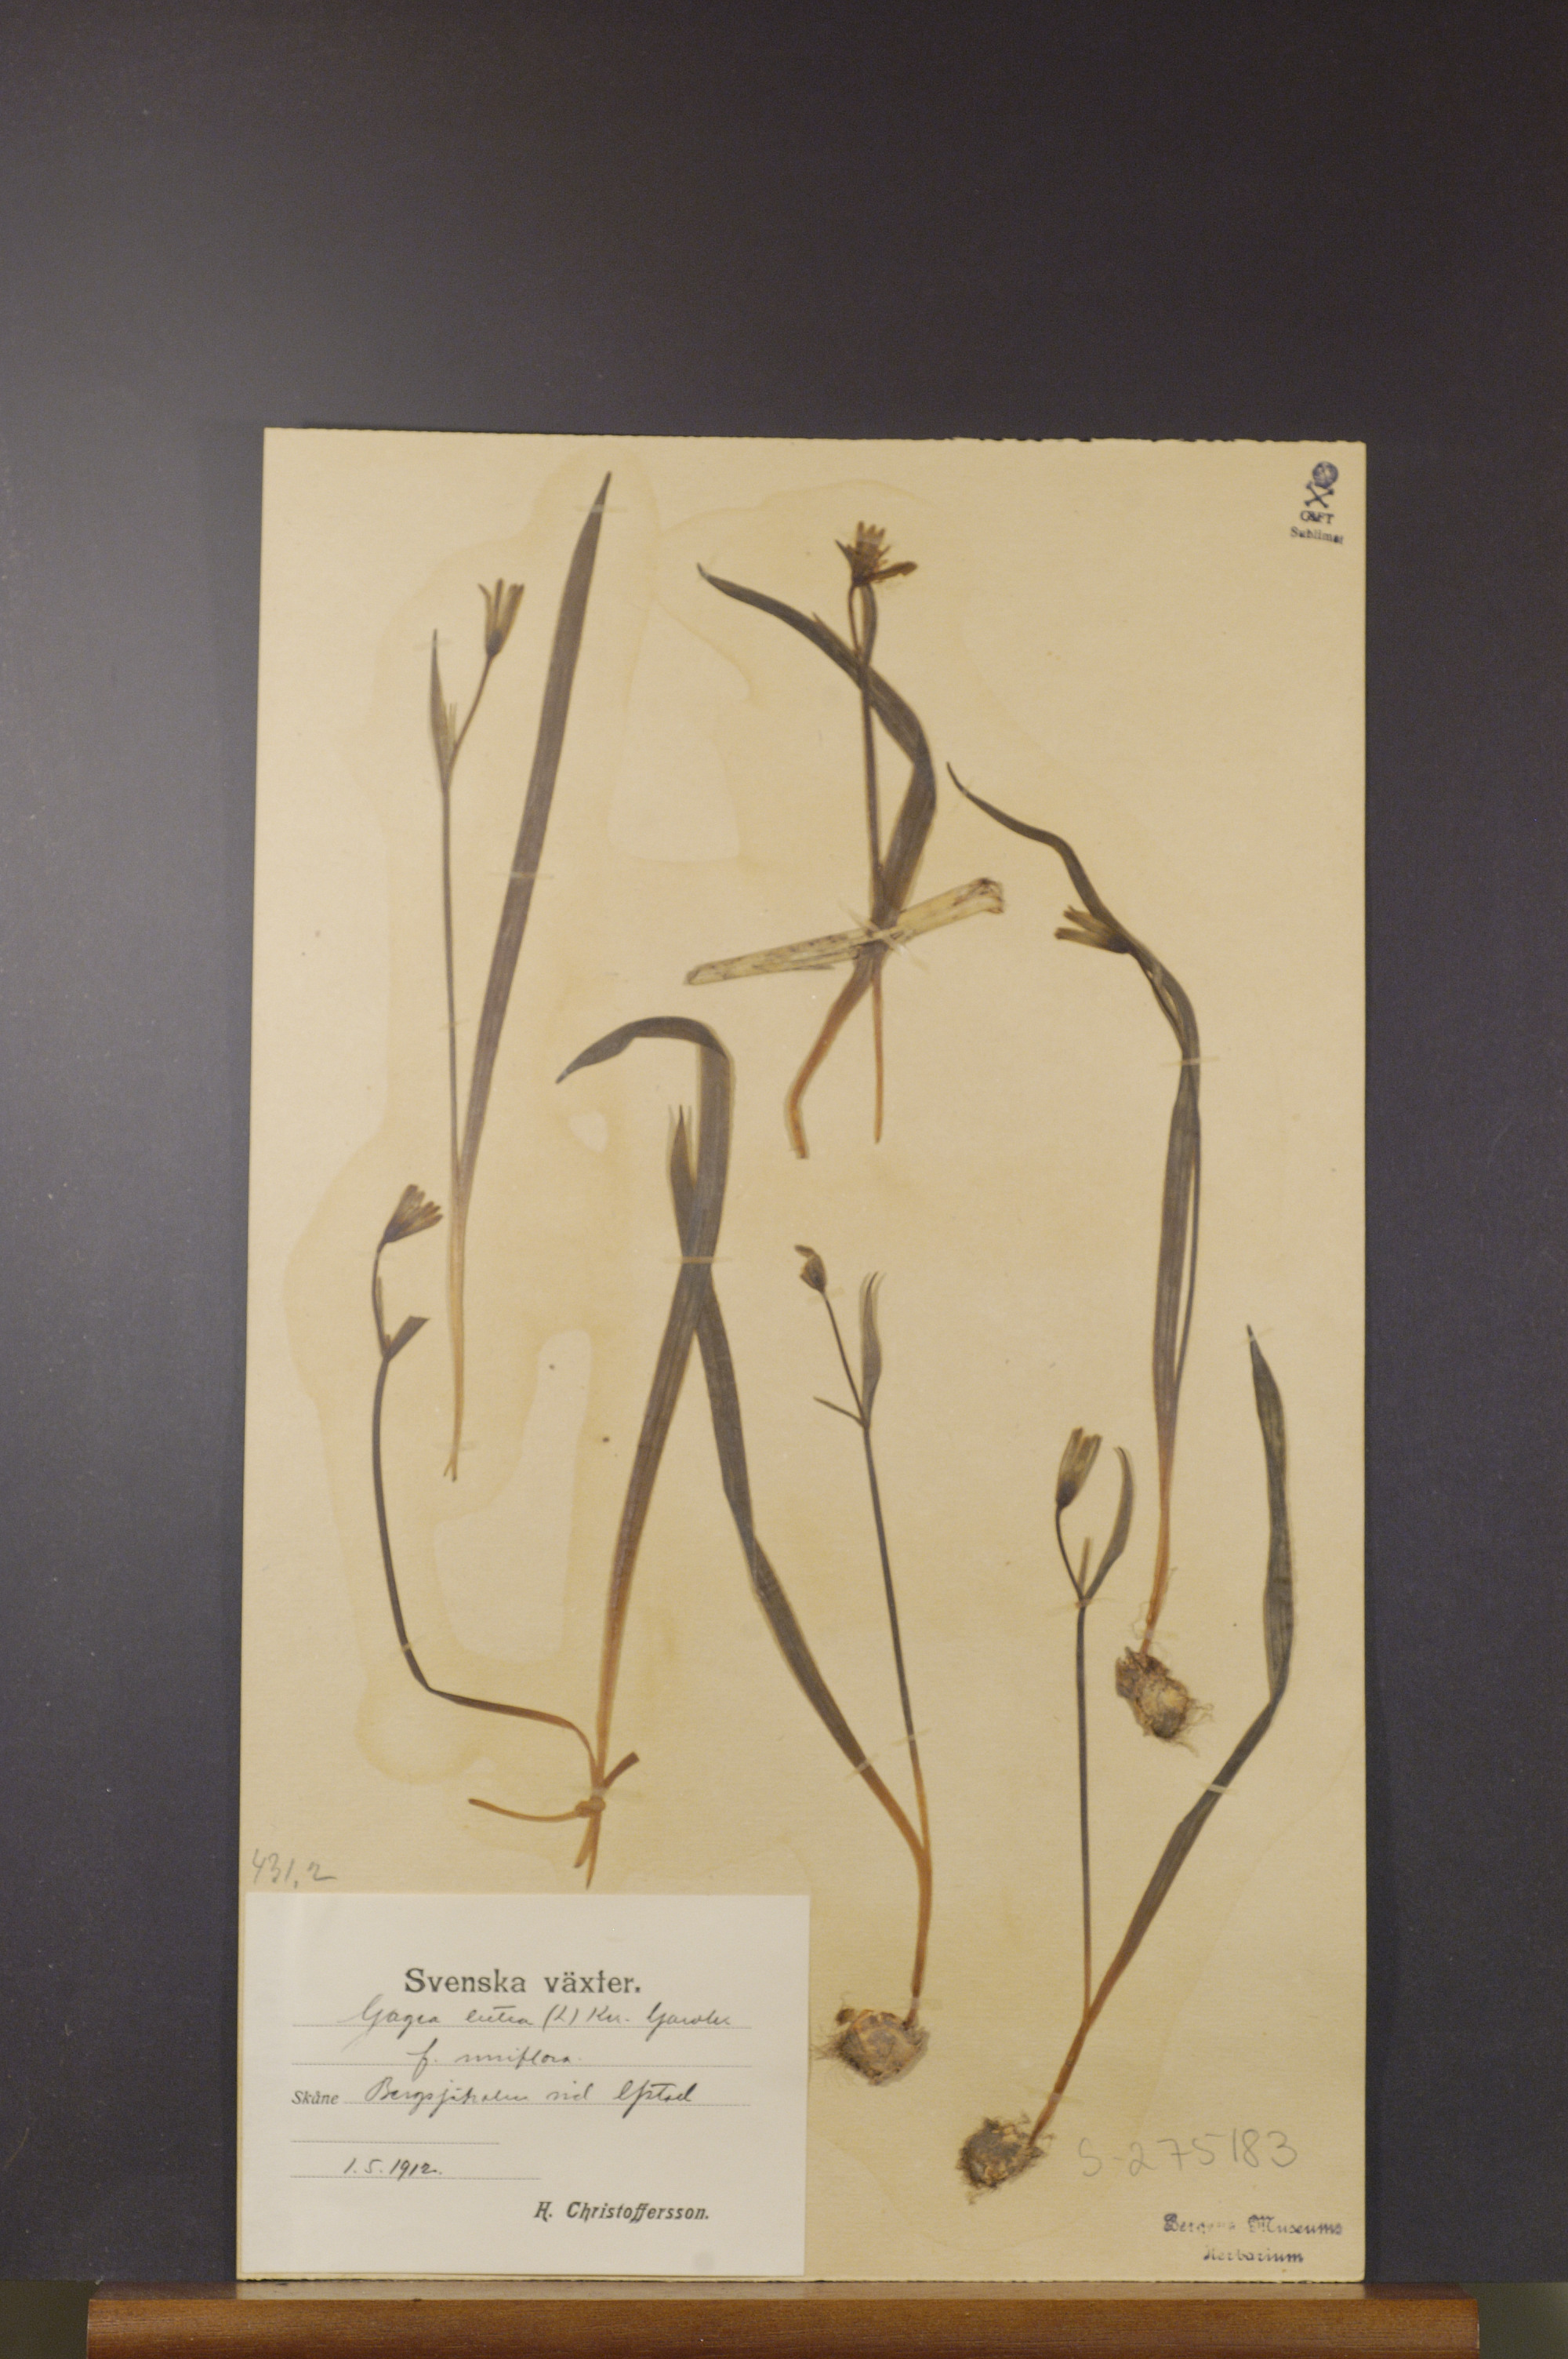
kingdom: Plantae
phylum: Tracheophyta
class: Liliopsida
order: Liliales
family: Liliaceae
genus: Gagea
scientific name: Gagea lutea
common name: Yellow star-of-bethlehem
